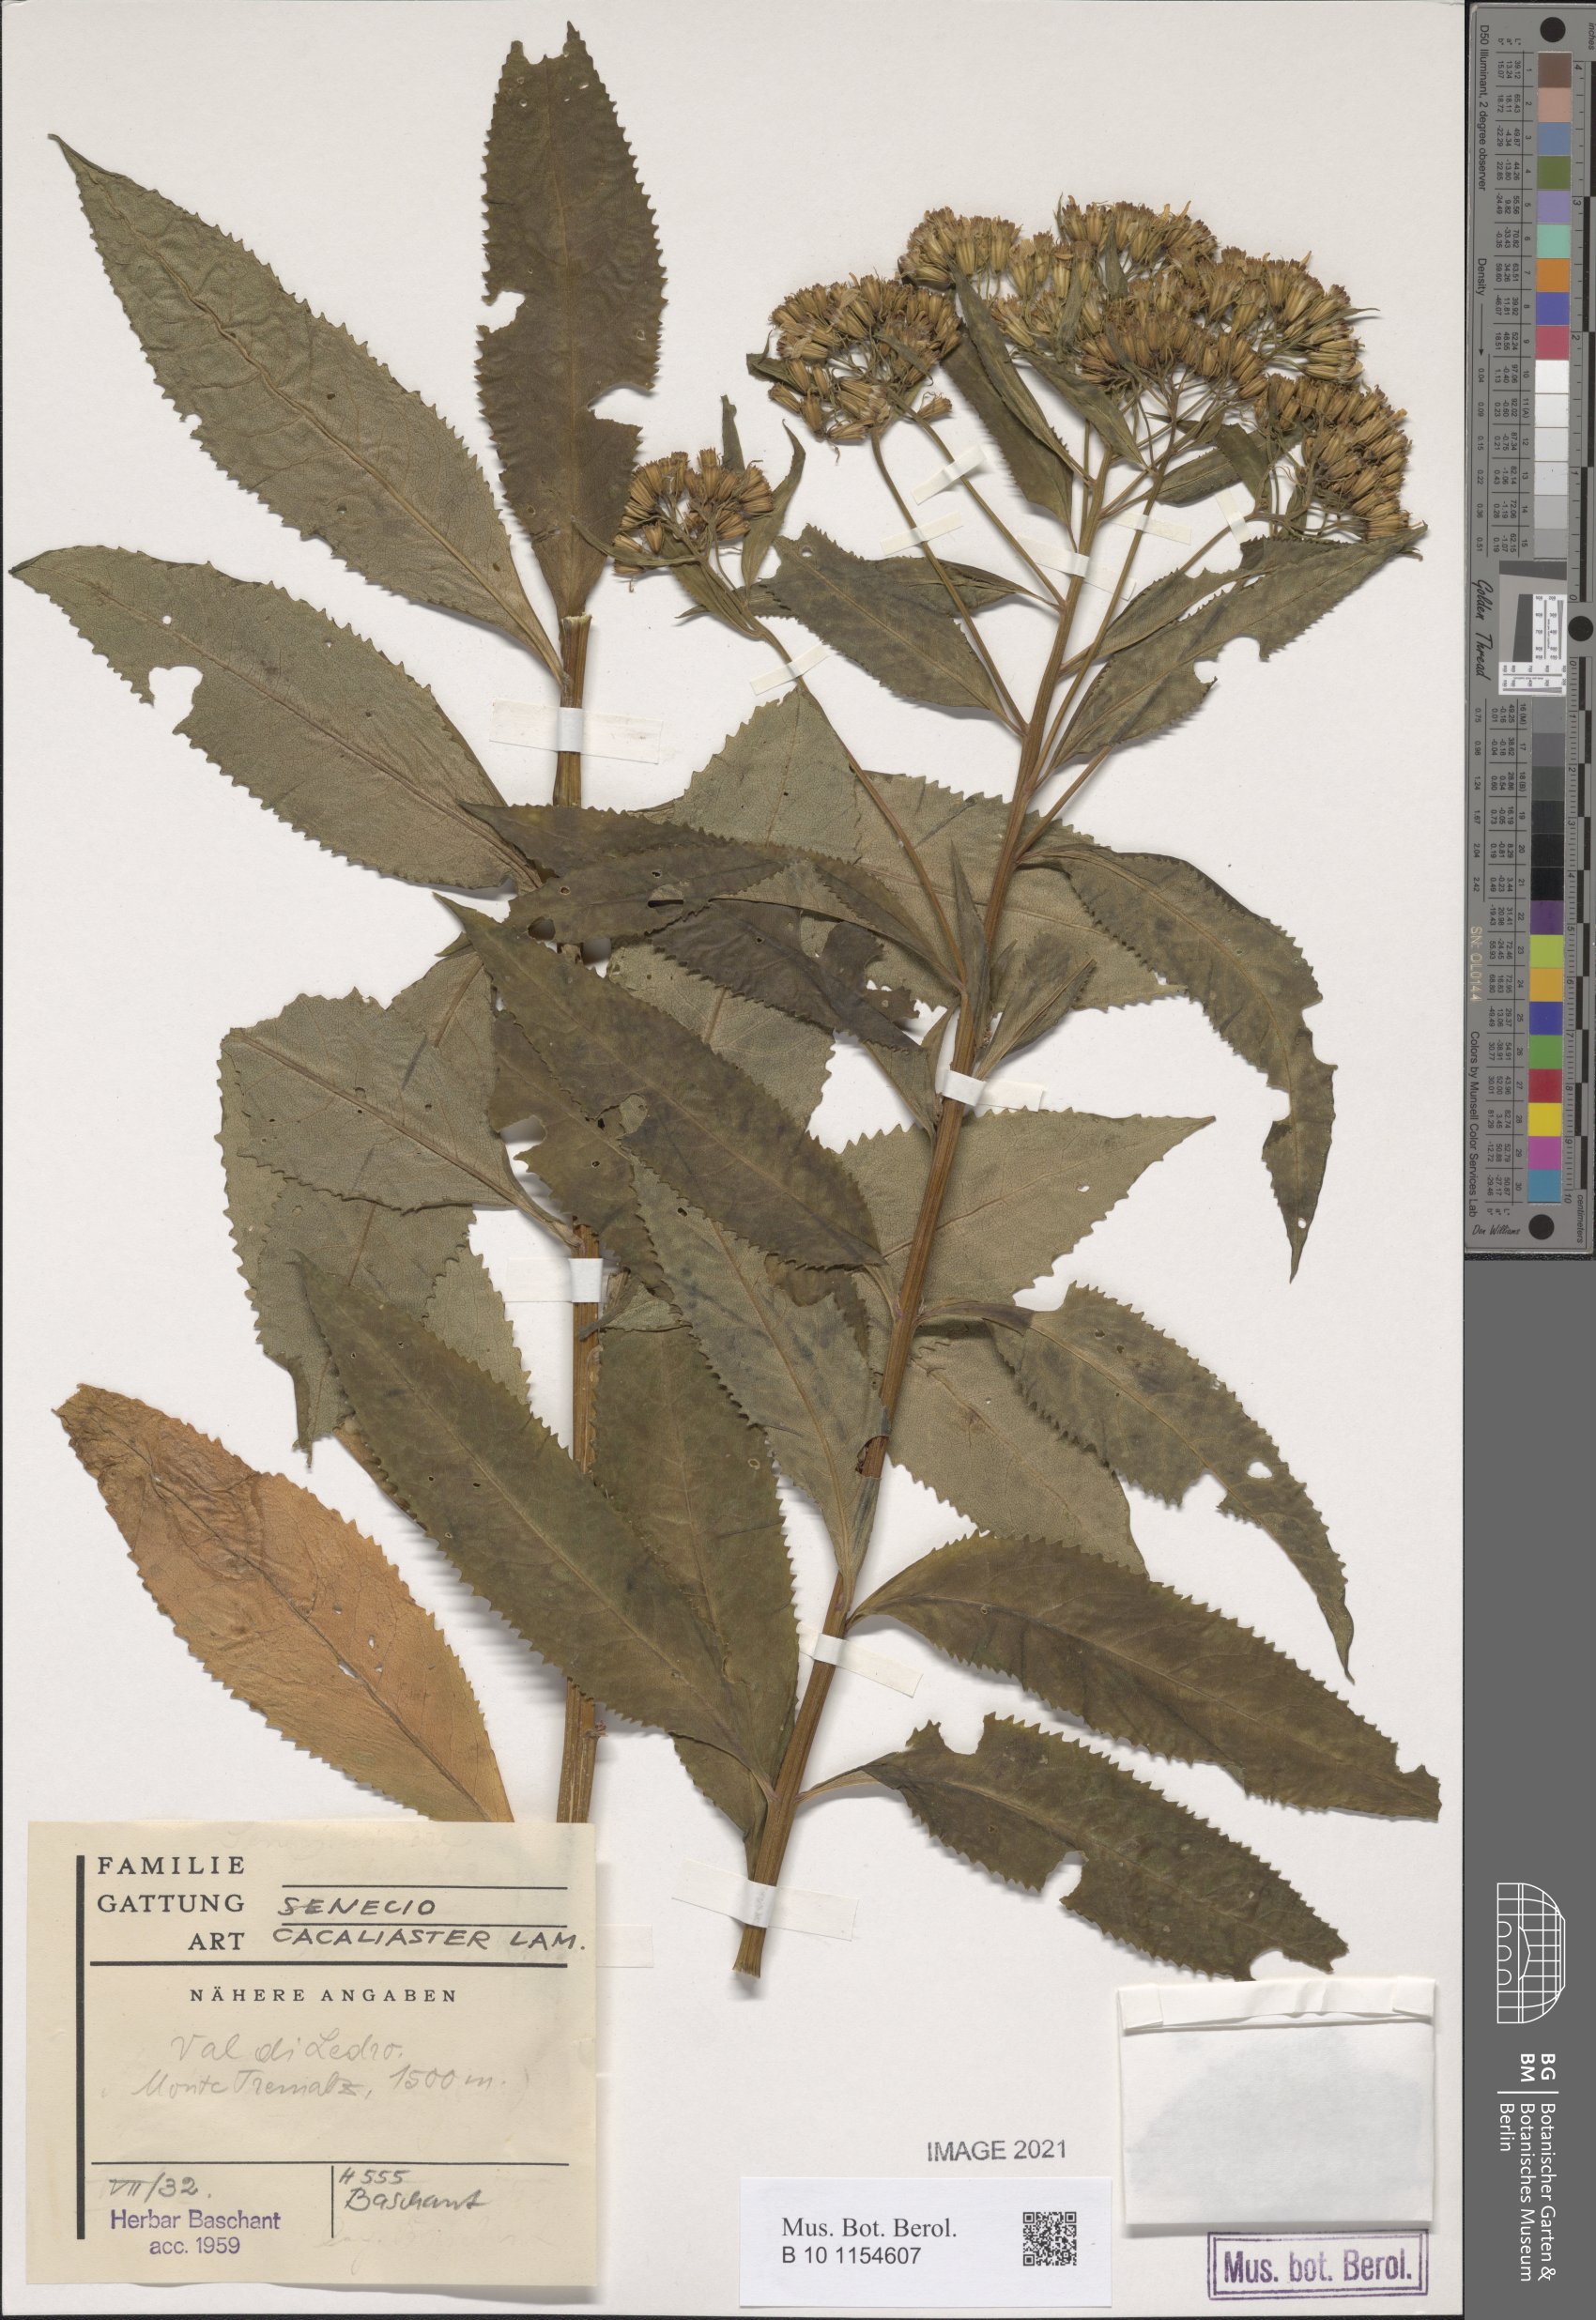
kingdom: Plantae
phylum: Tracheophyta
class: Magnoliopsida
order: Asterales
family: Asteraceae
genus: Senecio
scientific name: Senecio cacaliaster
